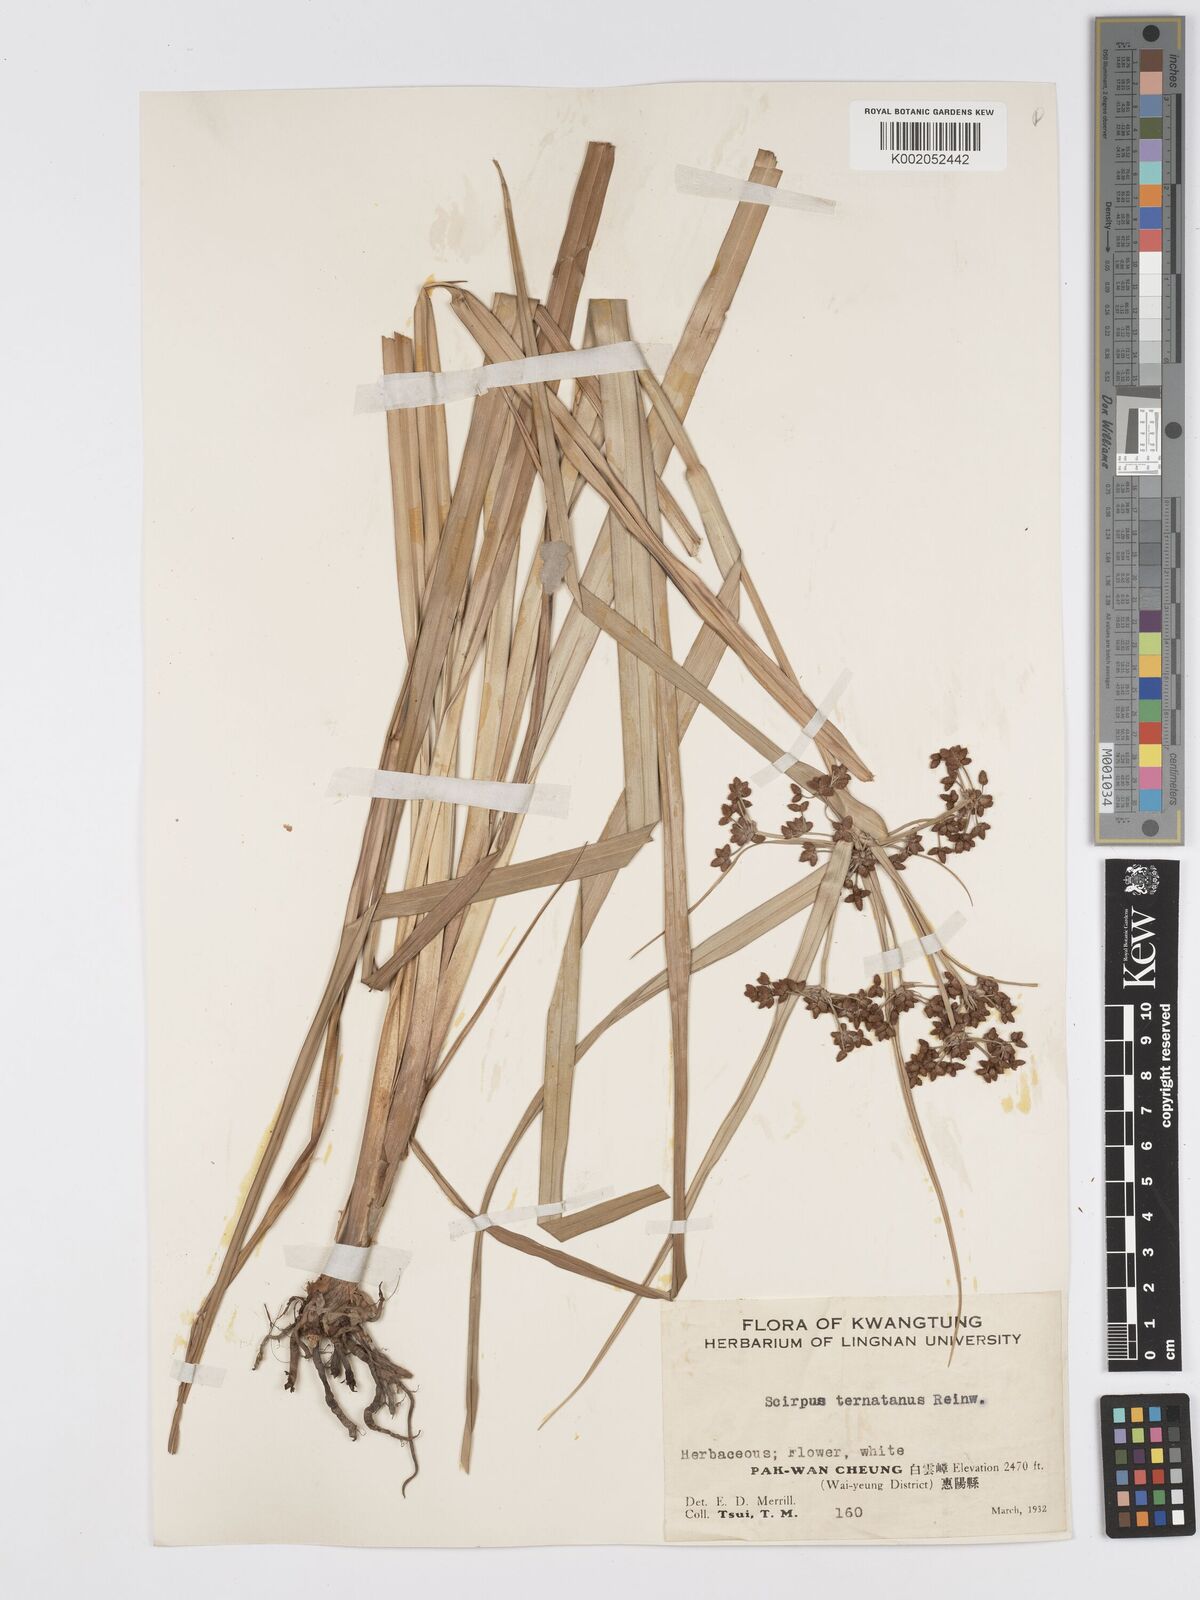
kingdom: Plantae
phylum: Tracheophyta
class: Liliopsida
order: Poales
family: Cyperaceae
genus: Scirpus
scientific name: Scirpus ternatanus
